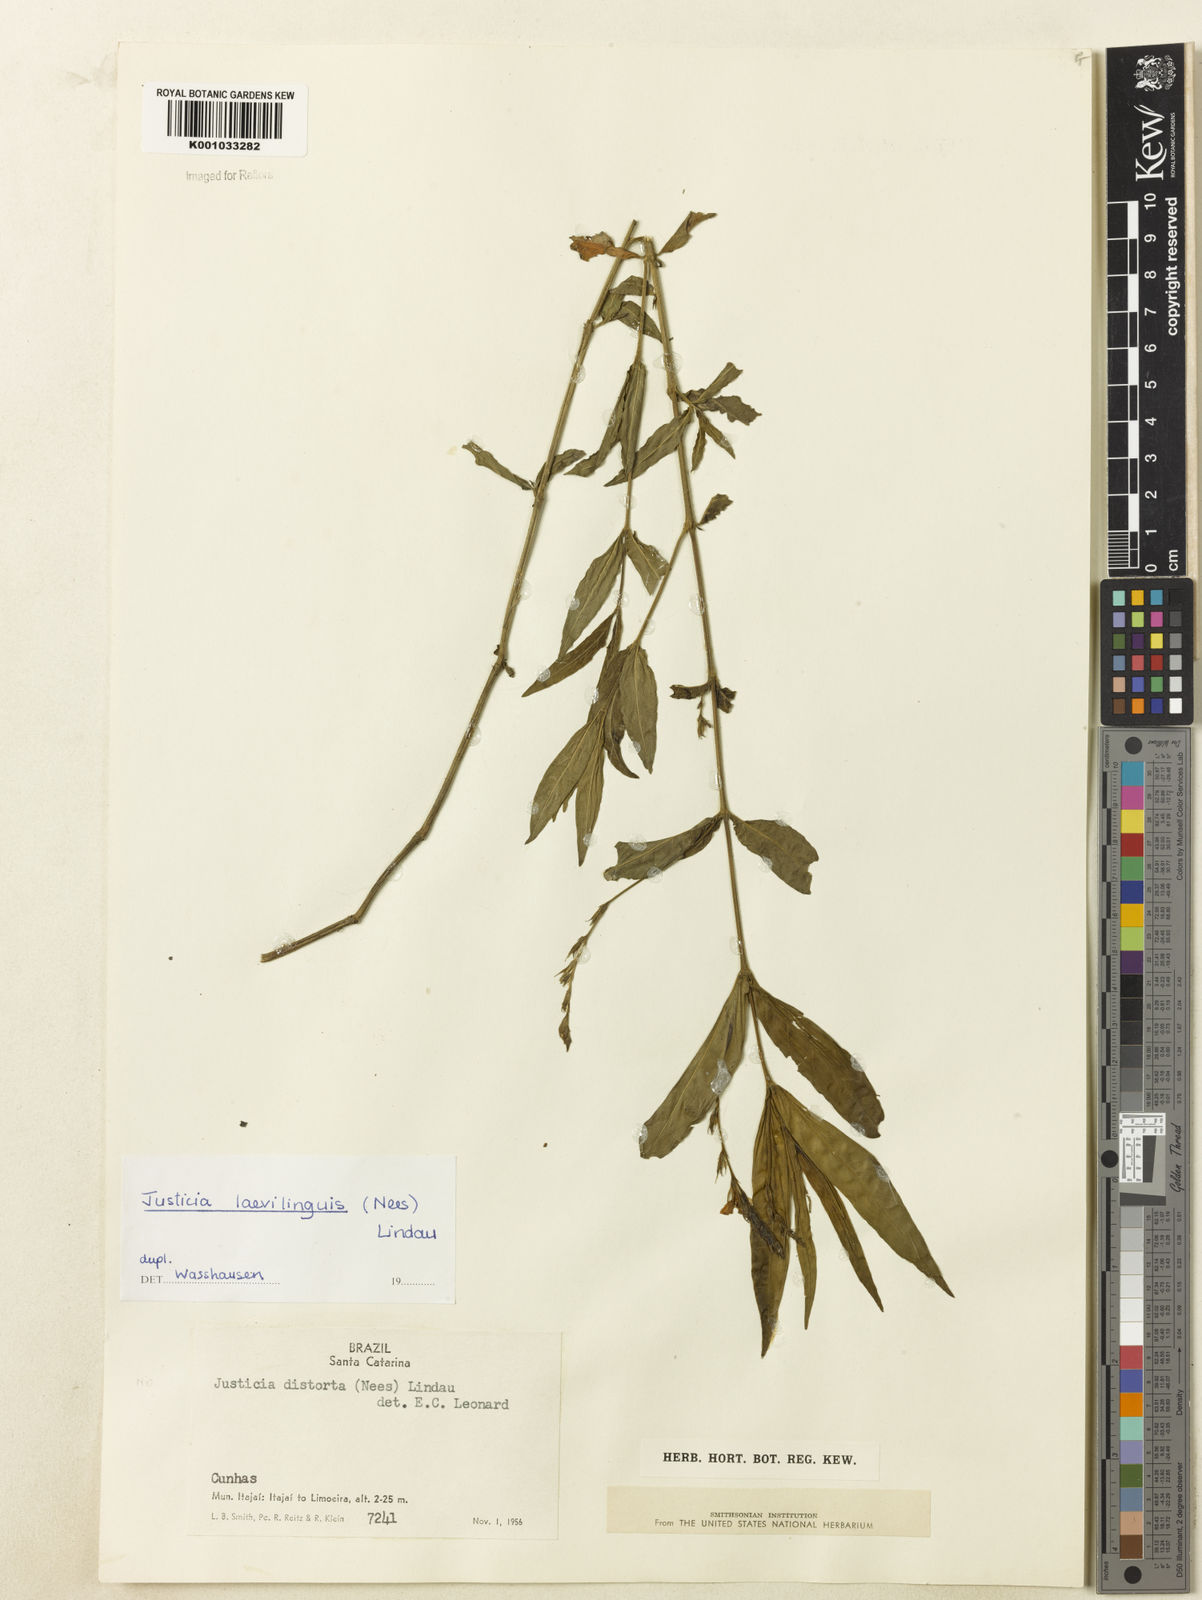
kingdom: Plantae
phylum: Tracheophyta
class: Magnoliopsida
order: Lamiales
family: Acanthaceae
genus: Dianthera
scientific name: Dianthera laevilinguis
